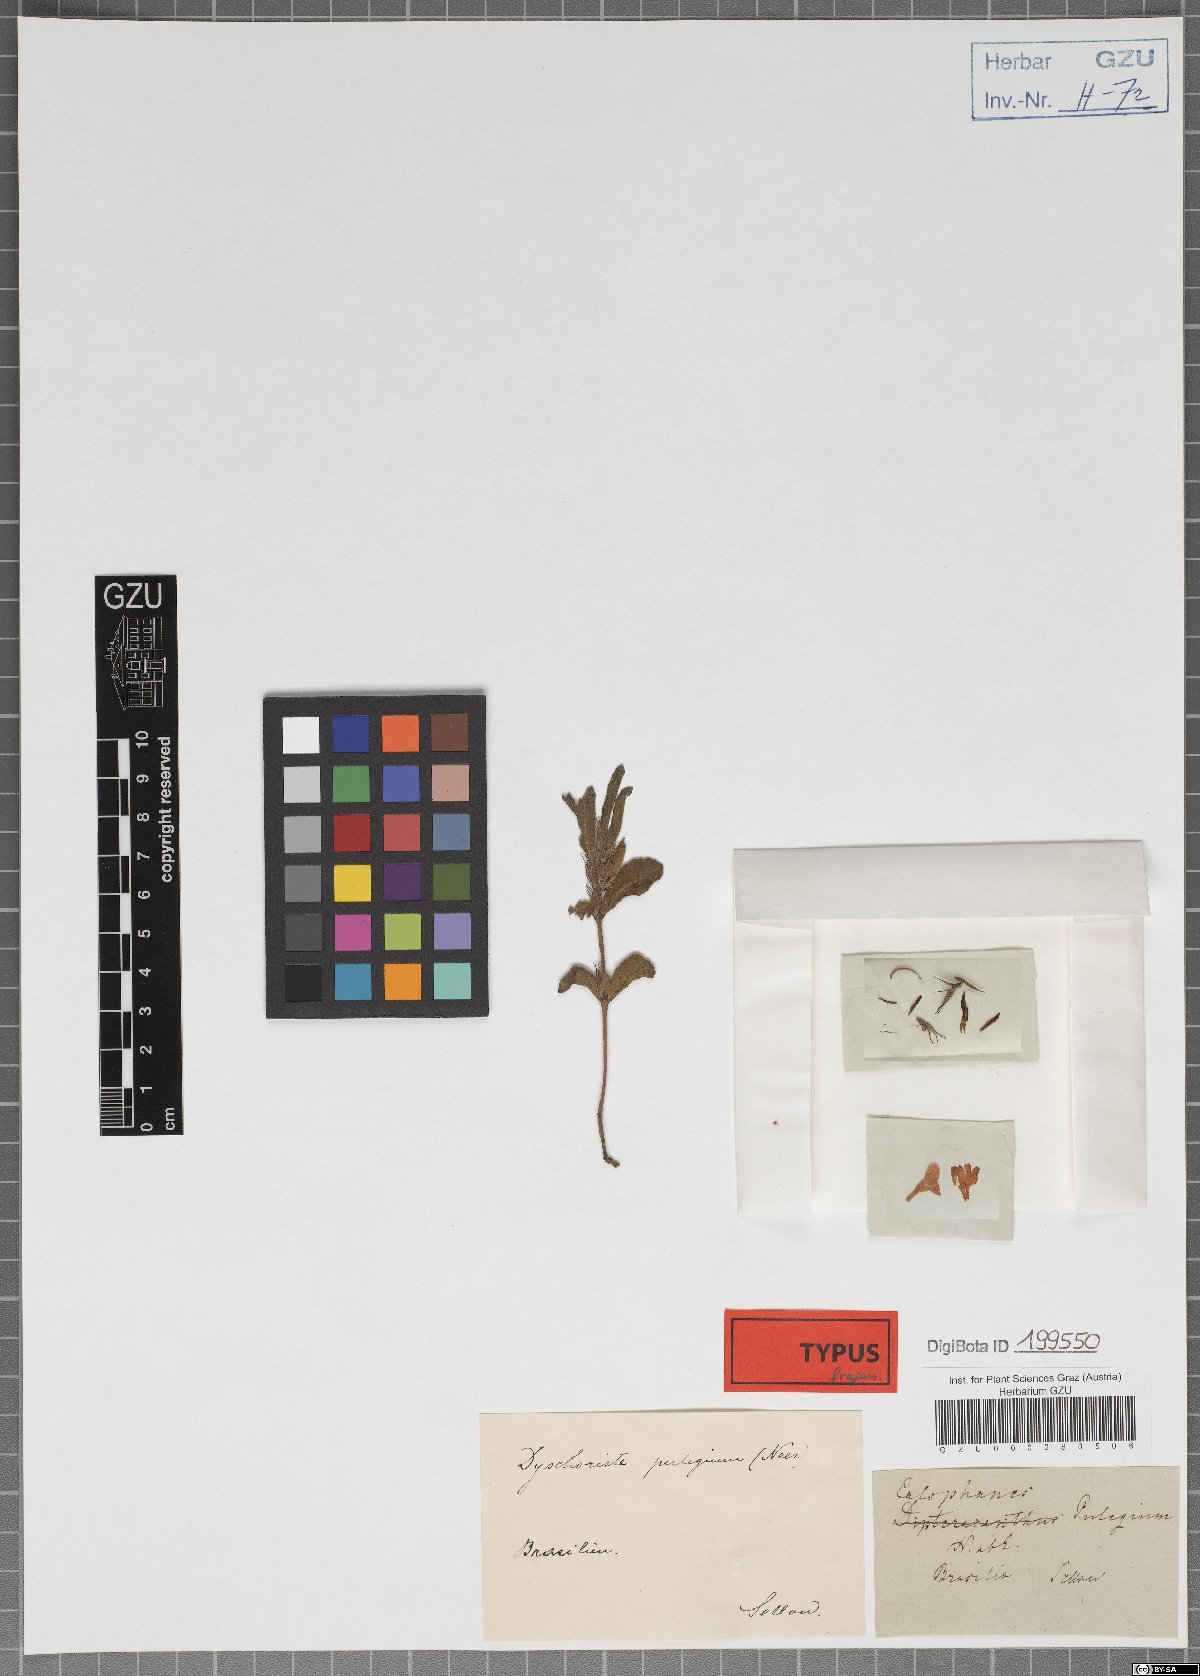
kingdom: Plantae
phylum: Tracheophyta
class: Magnoliopsida
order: Lamiales
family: Acanthaceae
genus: Dyschoriste
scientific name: Dyschoriste pulegium
